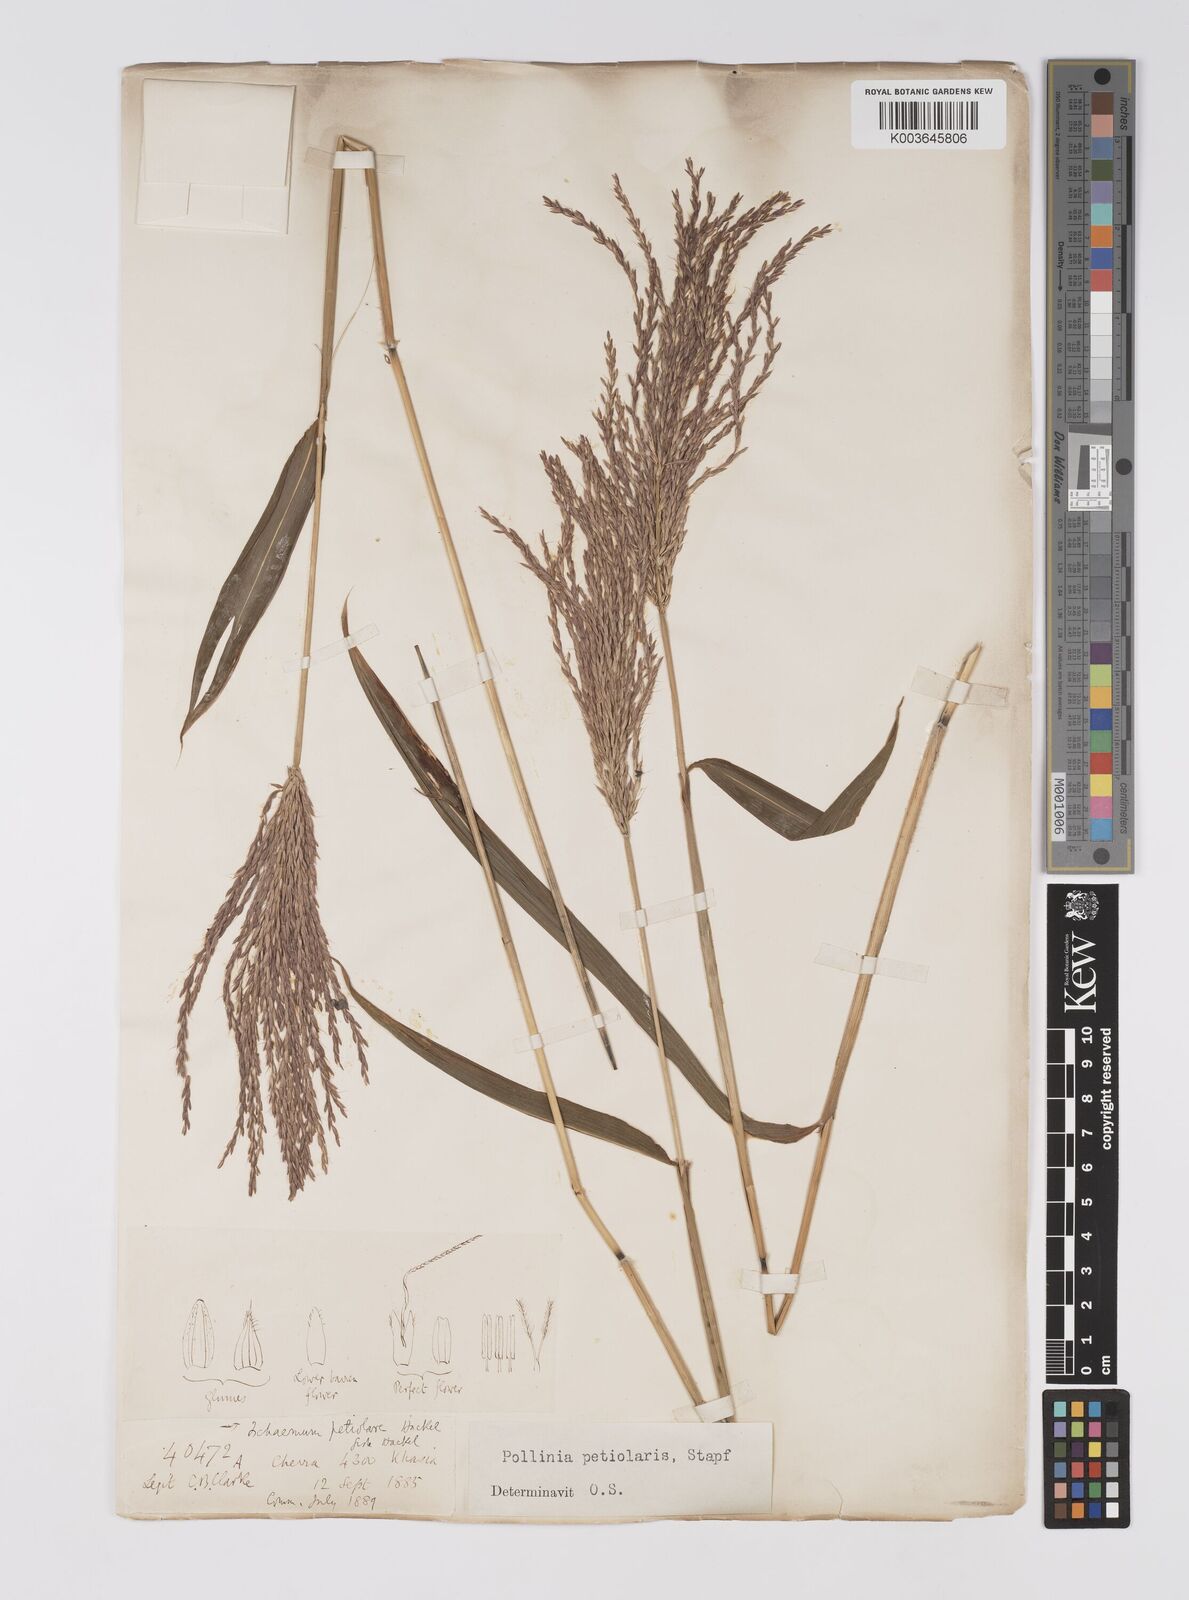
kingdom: Plantae
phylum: Tracheophyta
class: Liliopsida
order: Poales
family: Poaceae
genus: Microstegium
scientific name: Microstegium petiolare
